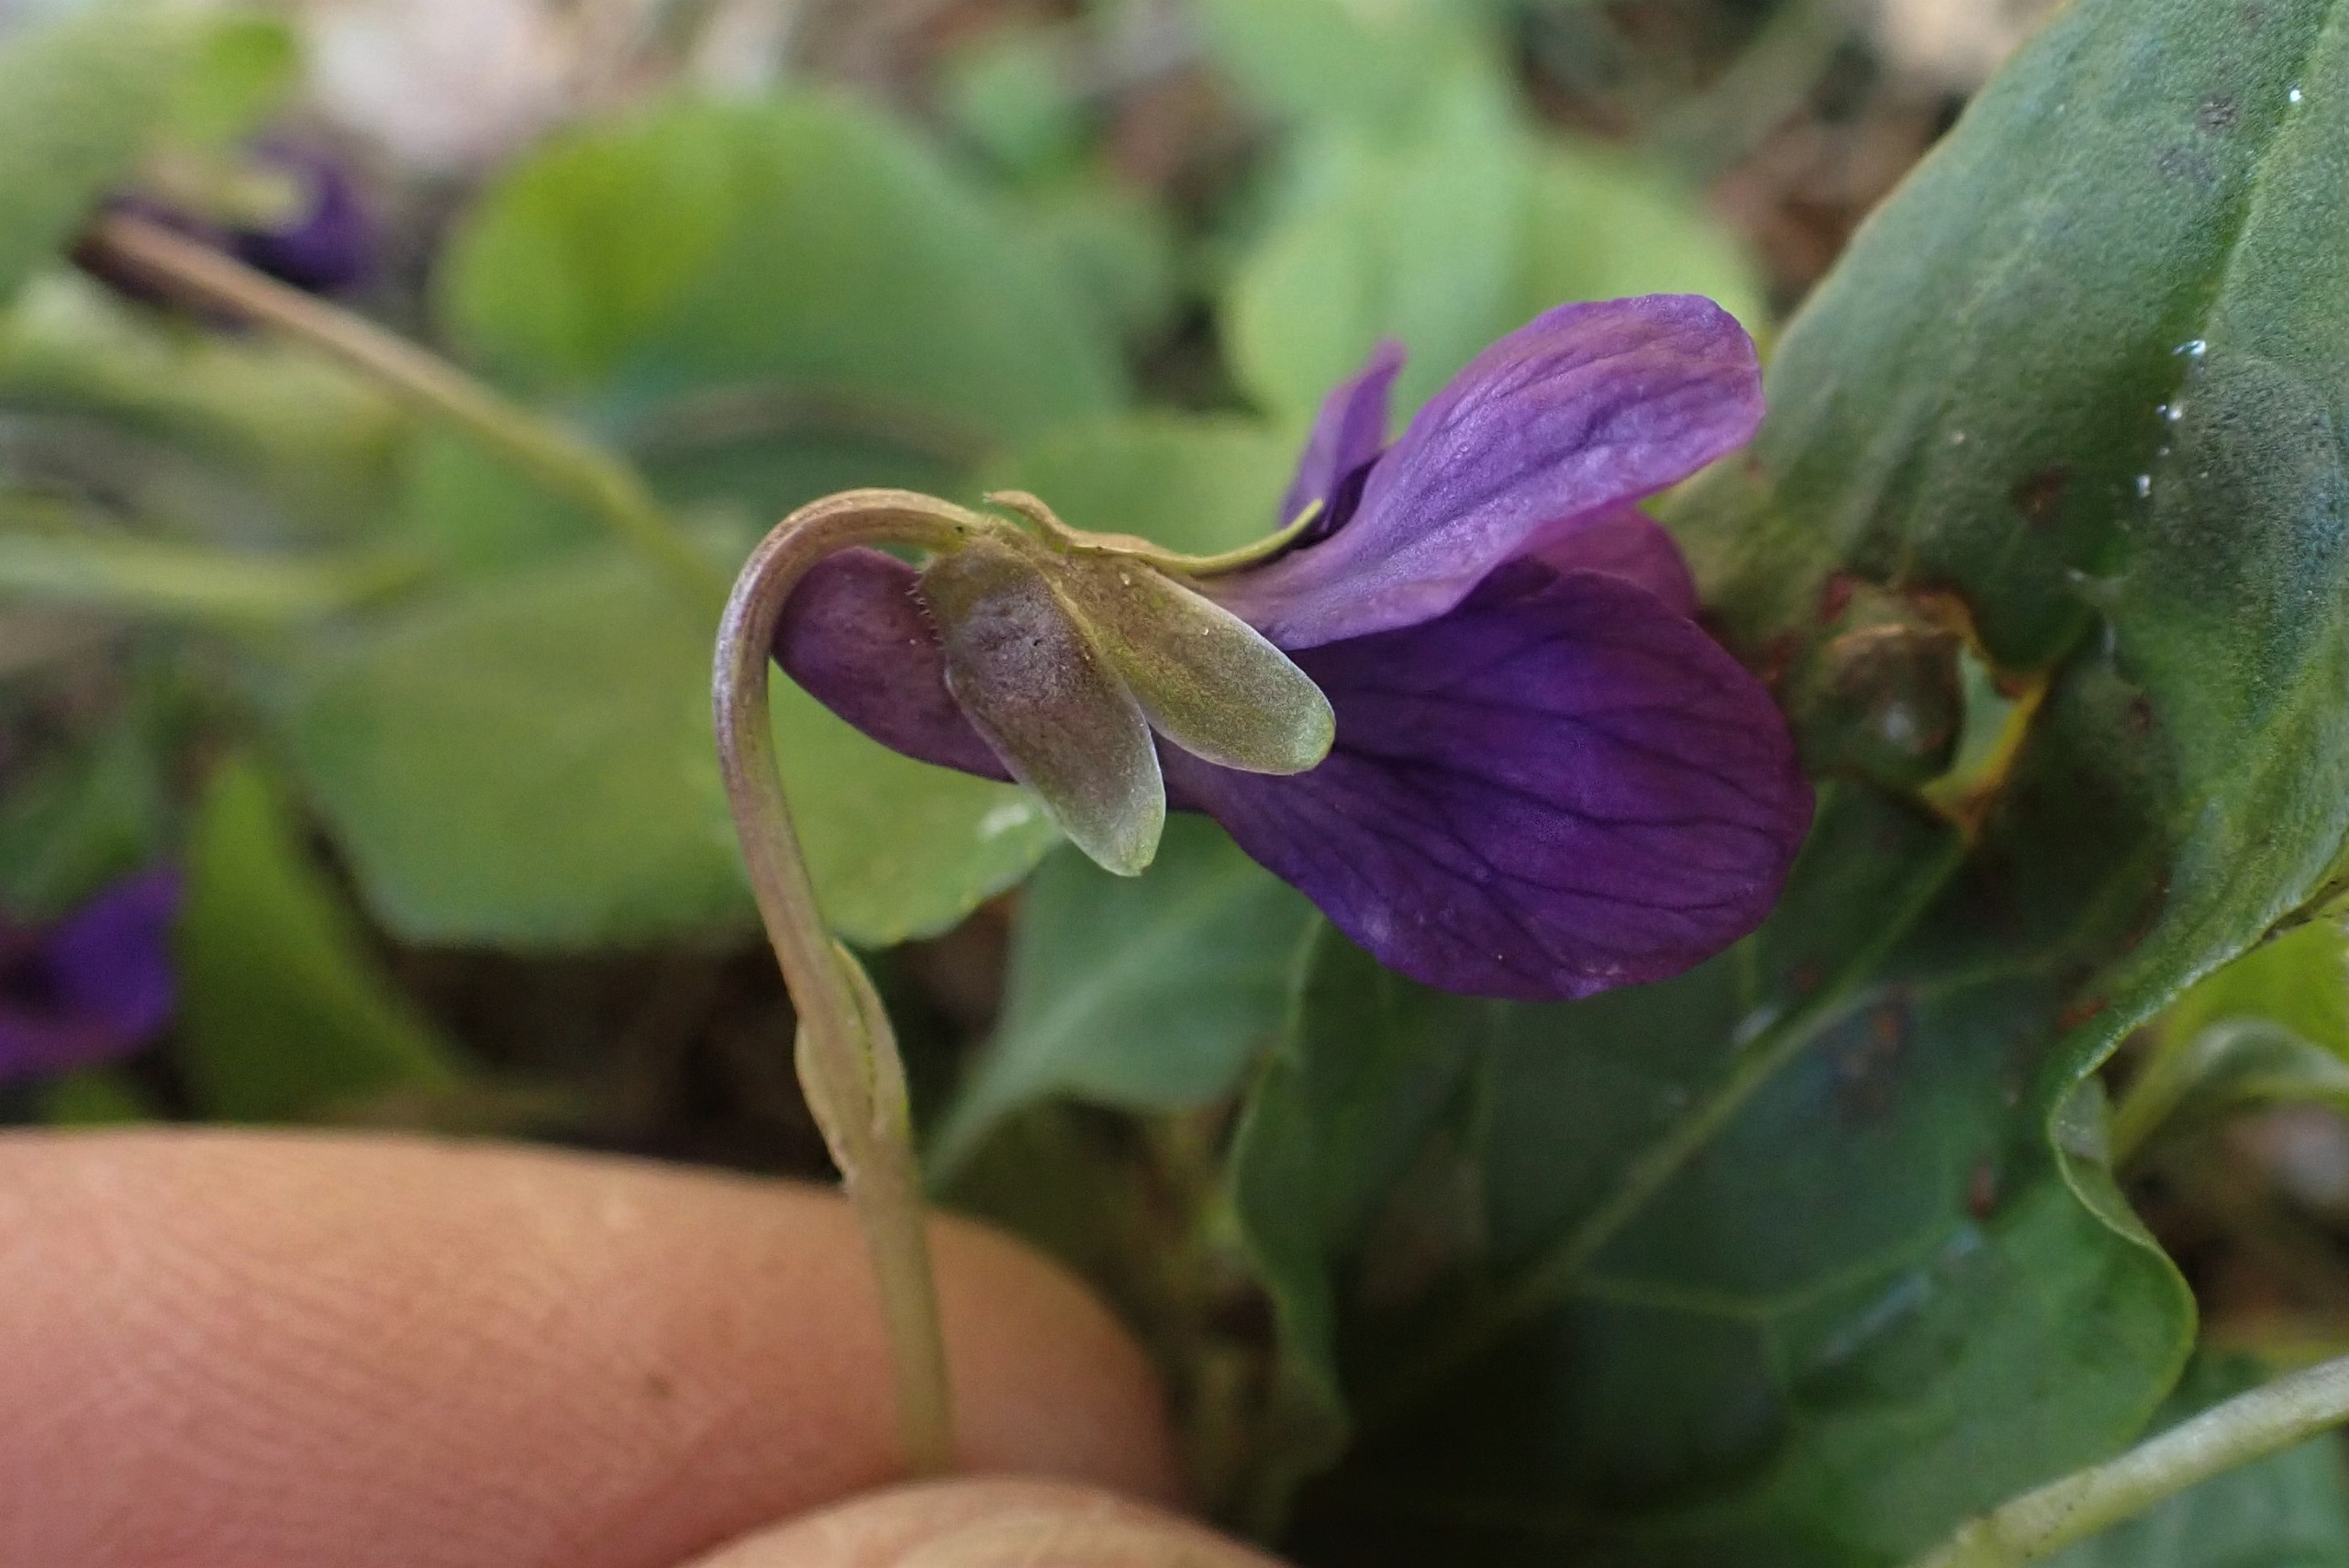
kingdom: Plantae
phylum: Tracheophyta
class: Magnoliopsida
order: Malpighiales
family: Violaceae
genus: Viola
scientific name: Viola odorata
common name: Marts-viol
